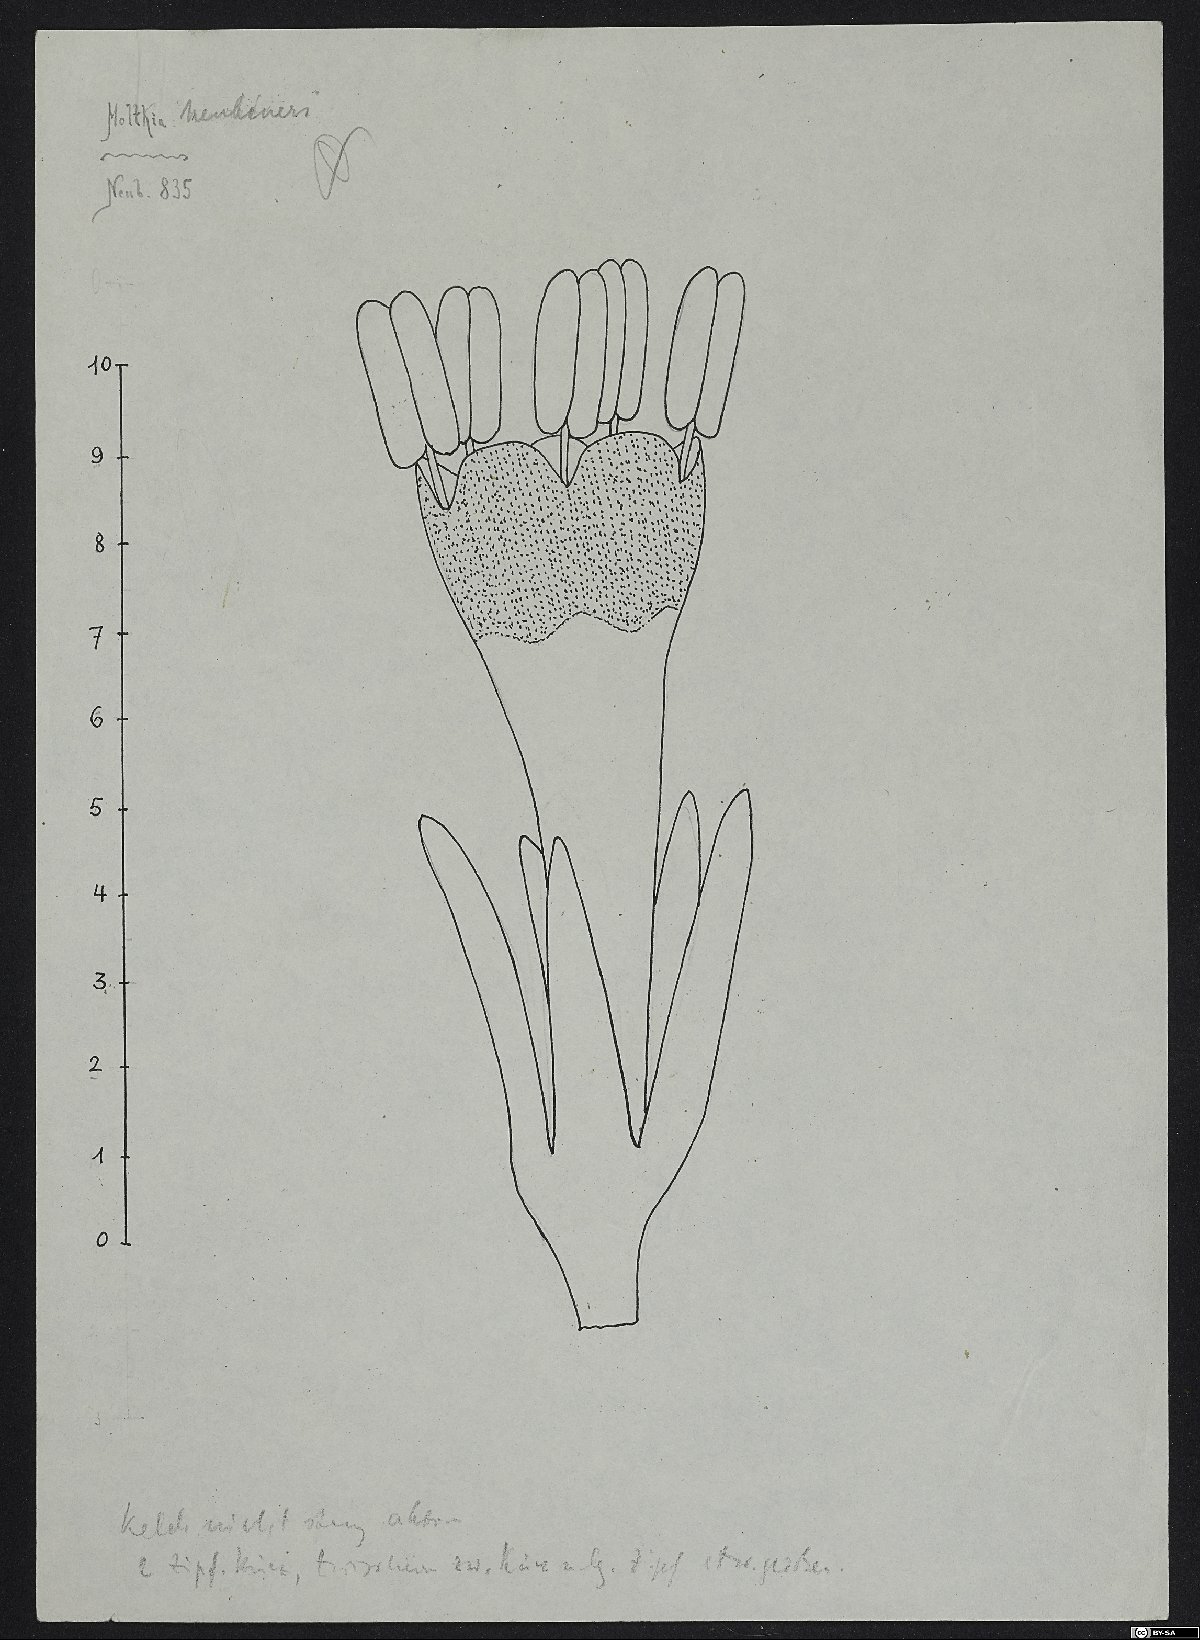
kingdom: Plantae
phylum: Tracheophyta
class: Magnoliopsida
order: Boraginales
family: Boraginaceae
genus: Rindera
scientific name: Rindera neubaueri
